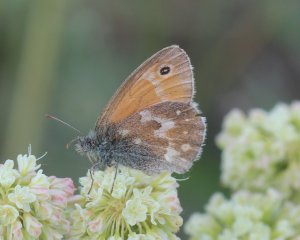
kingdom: Animalia
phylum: Arthropoda
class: Insecta
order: Lepidoptera
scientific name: Lepidoptera
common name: Butterflies
